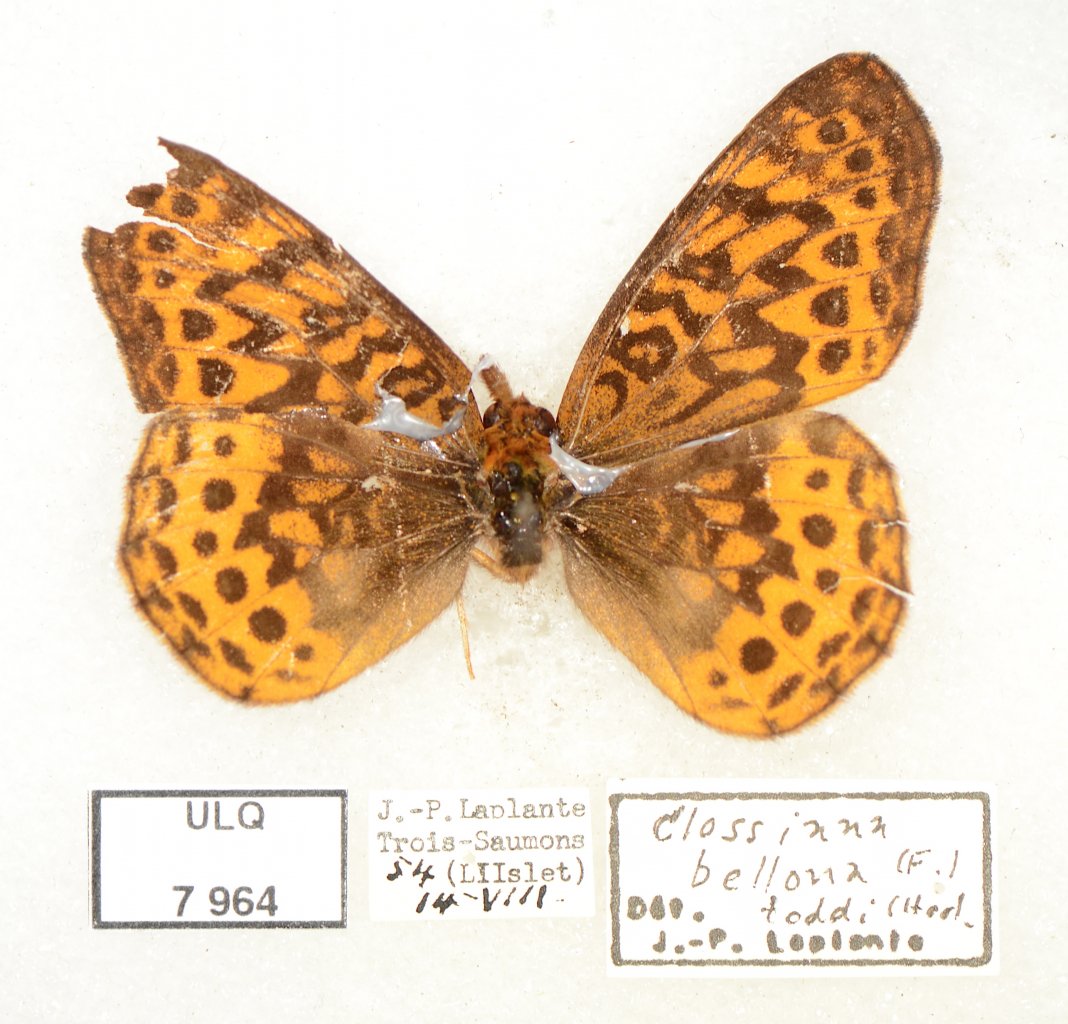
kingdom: Animalia
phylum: Arthropoda
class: Insecta
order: Lepidoptera
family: Nymphalidae
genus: Clossiana
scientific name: Clossiana toddi
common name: Meadow Fritillary
